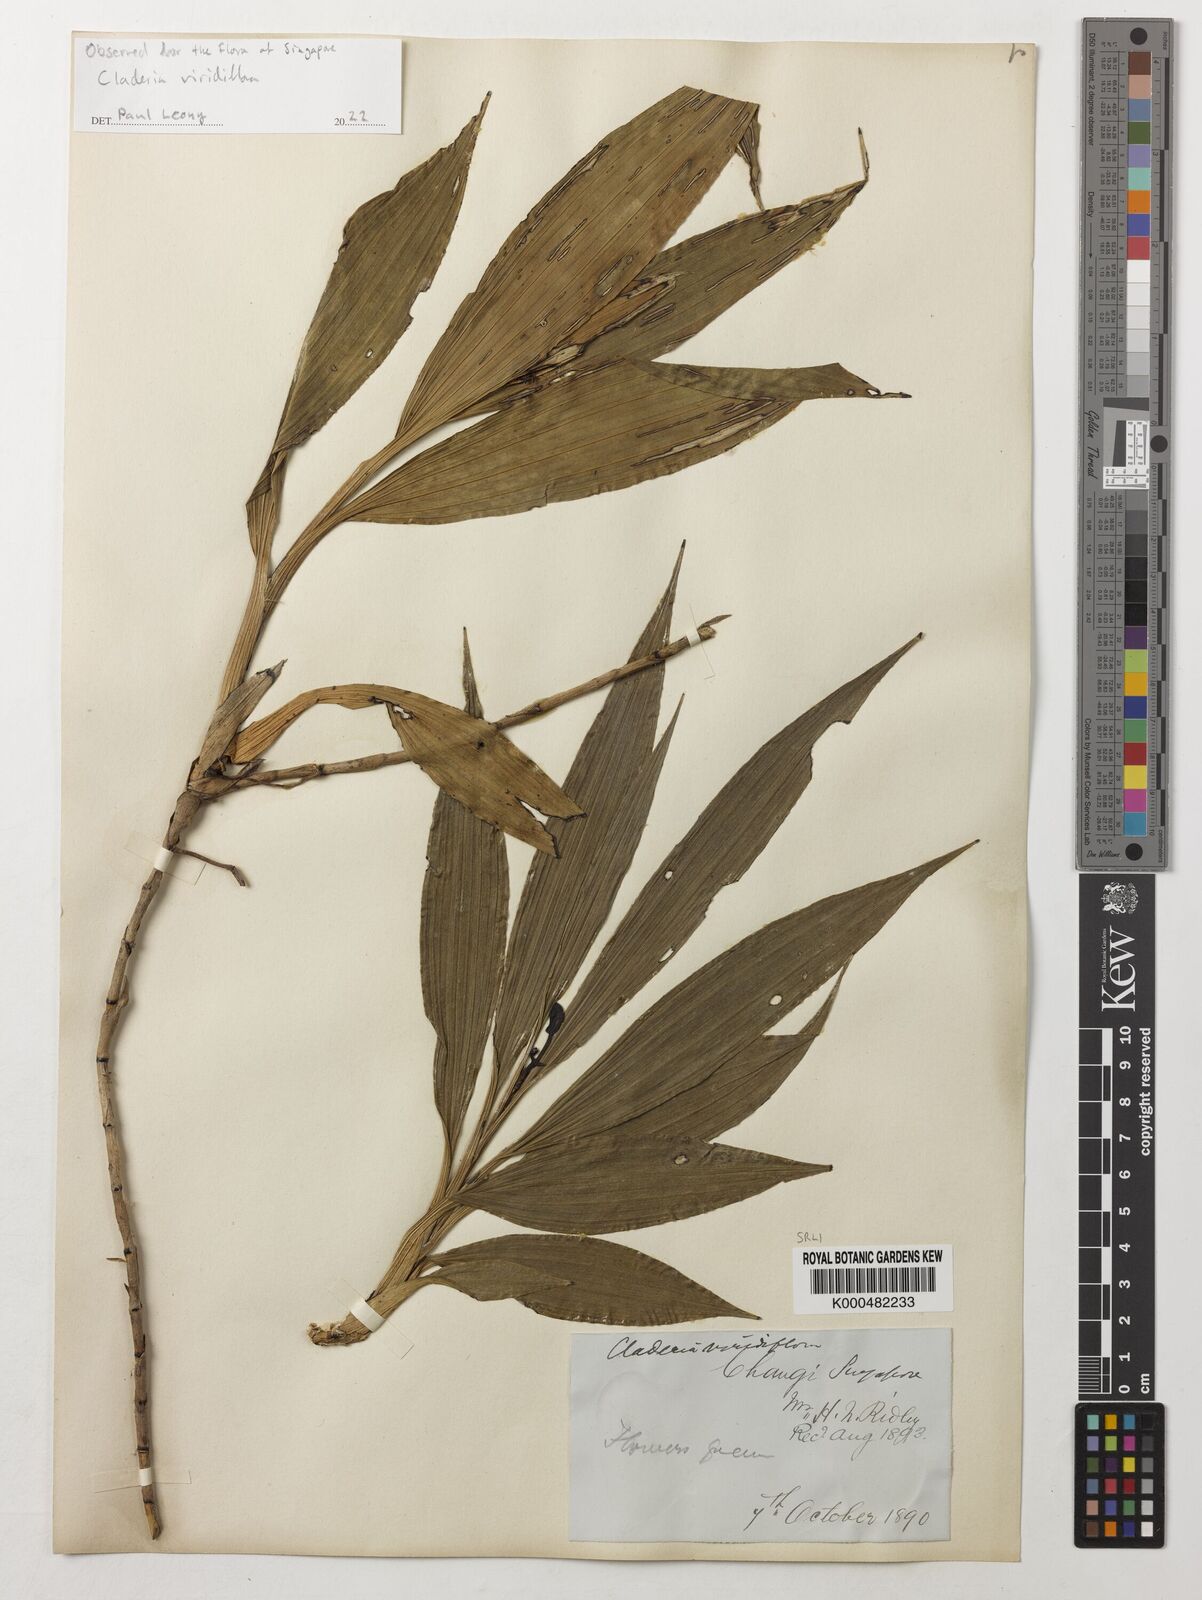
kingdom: Plantae
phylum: Tracheophyta
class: Liliopsida
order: Asparagales
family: Orchidaceae
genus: Claderia
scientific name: Claderia viridiflora
